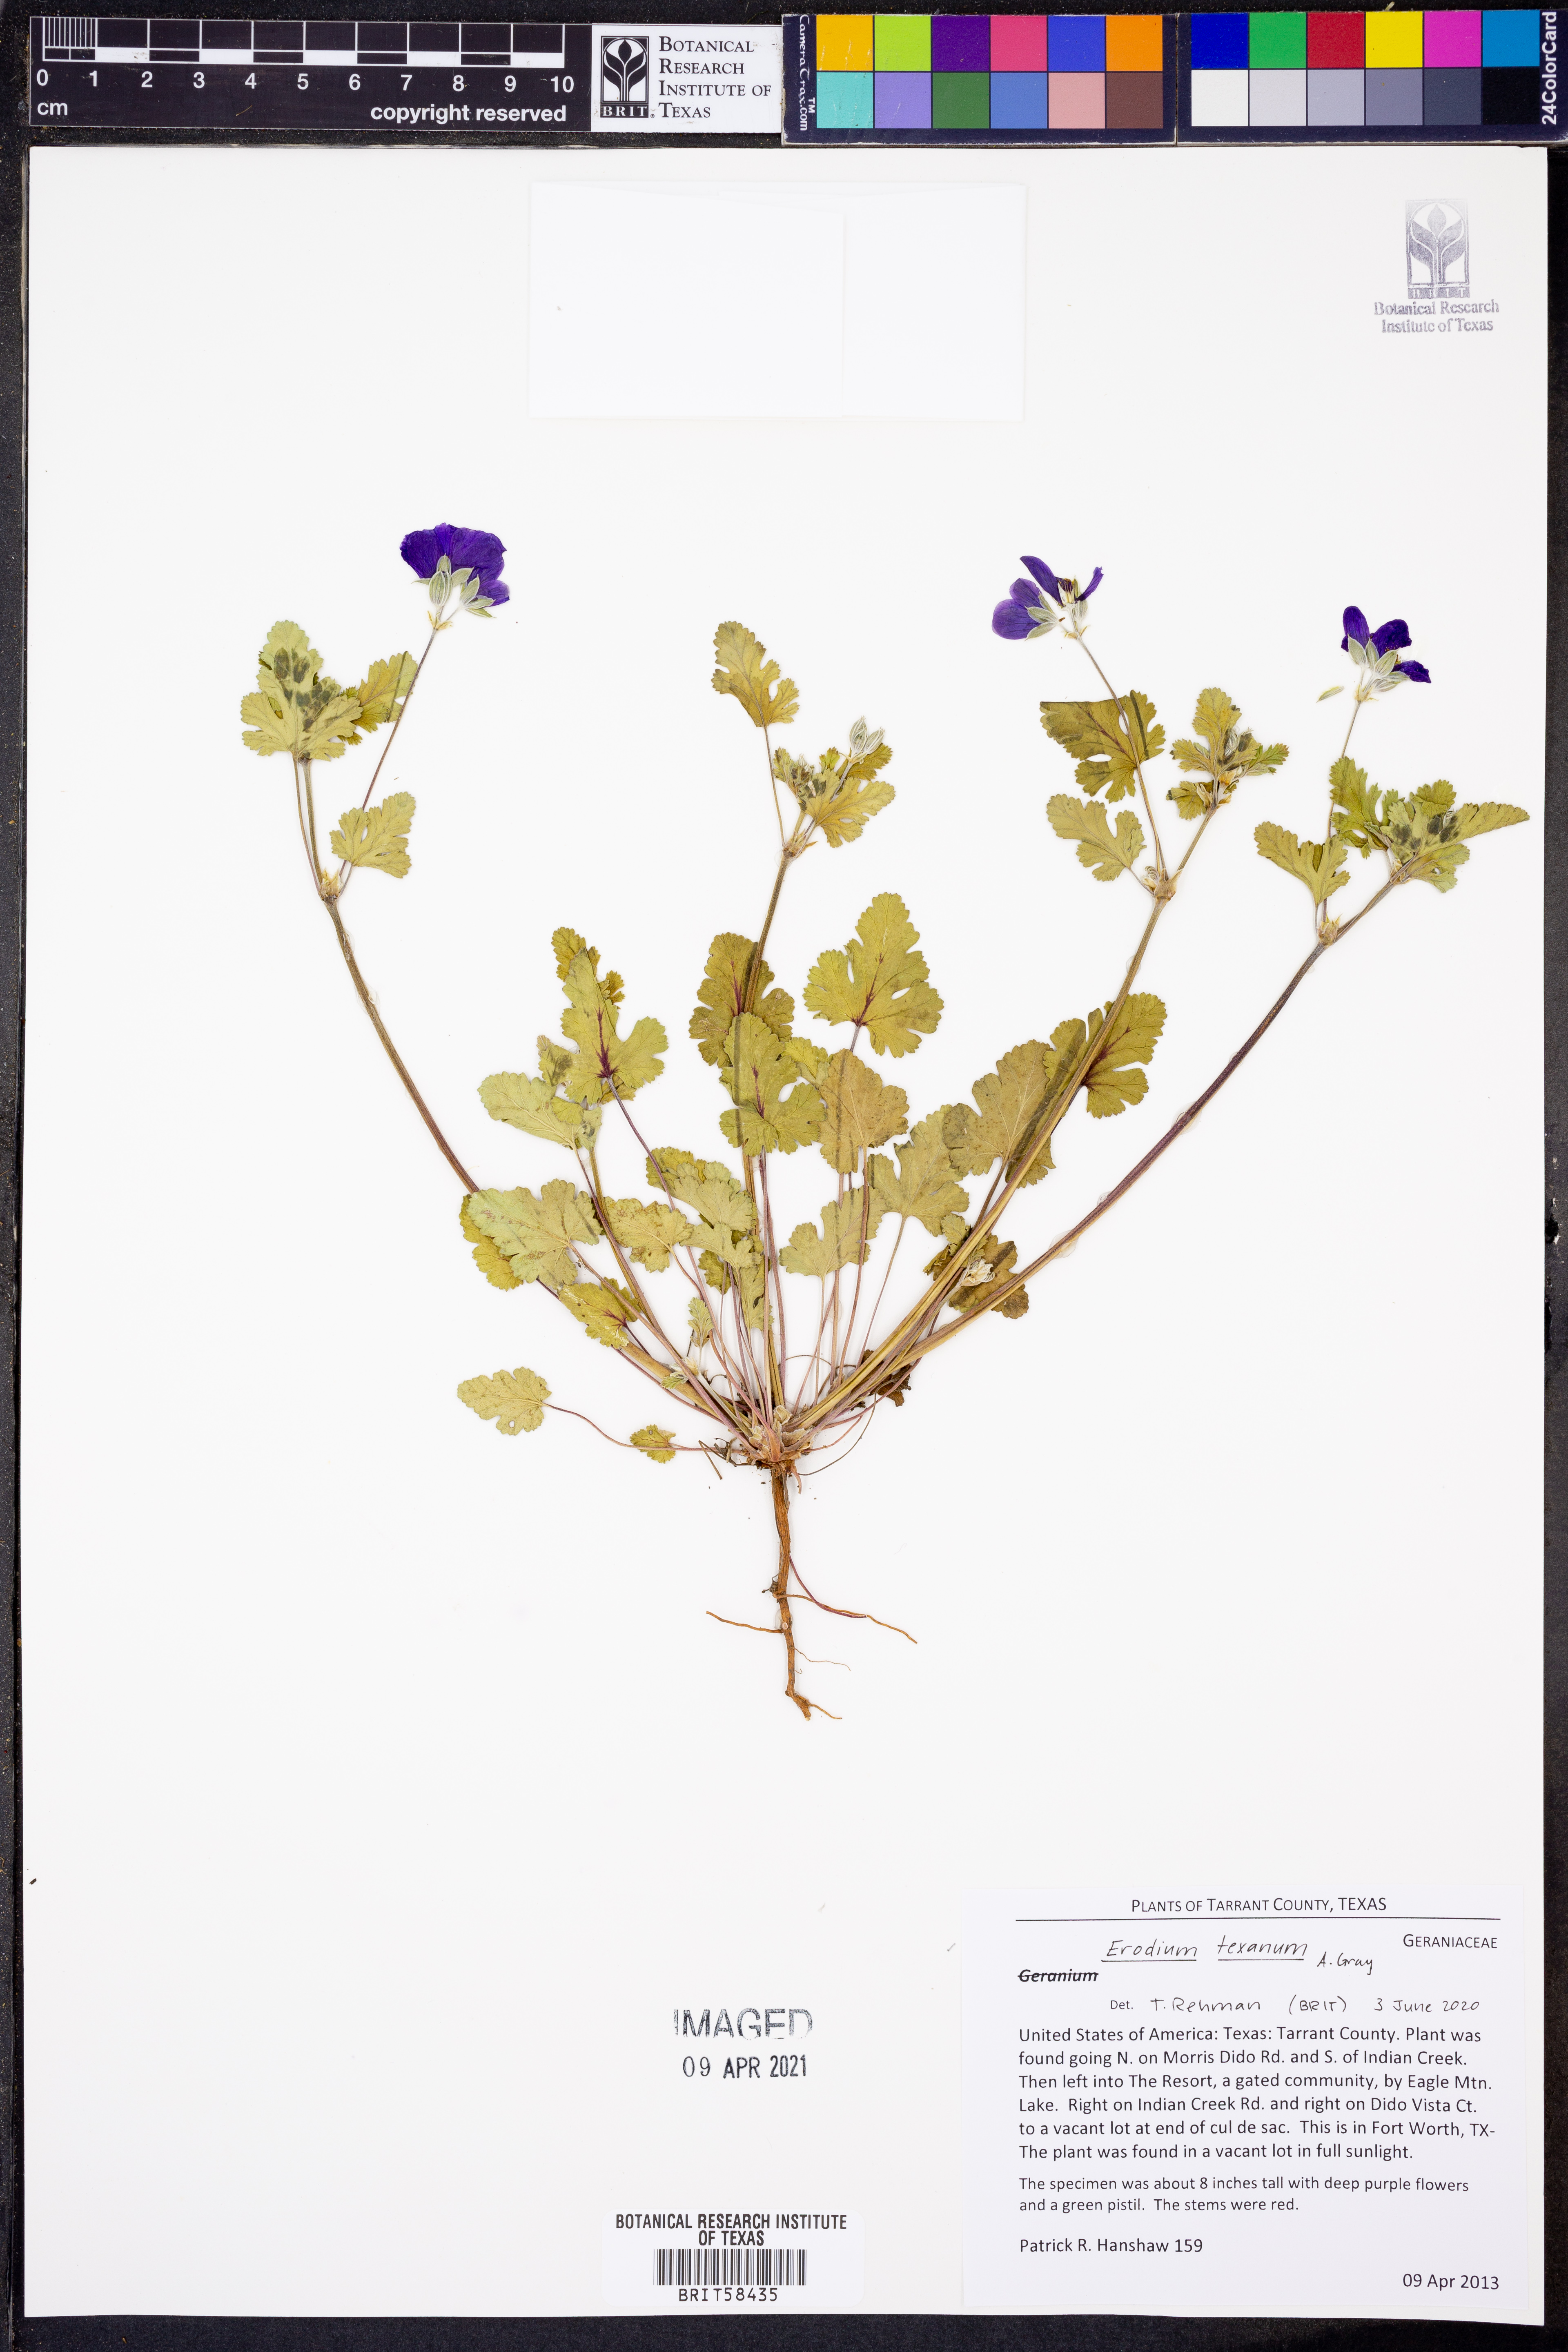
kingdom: Plantae
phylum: Tracheophyta
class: Magnoliopsida
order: Geraniales
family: Geraniaceae
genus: Erodium
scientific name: Erodium texanum
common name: Texas stork's-bill
